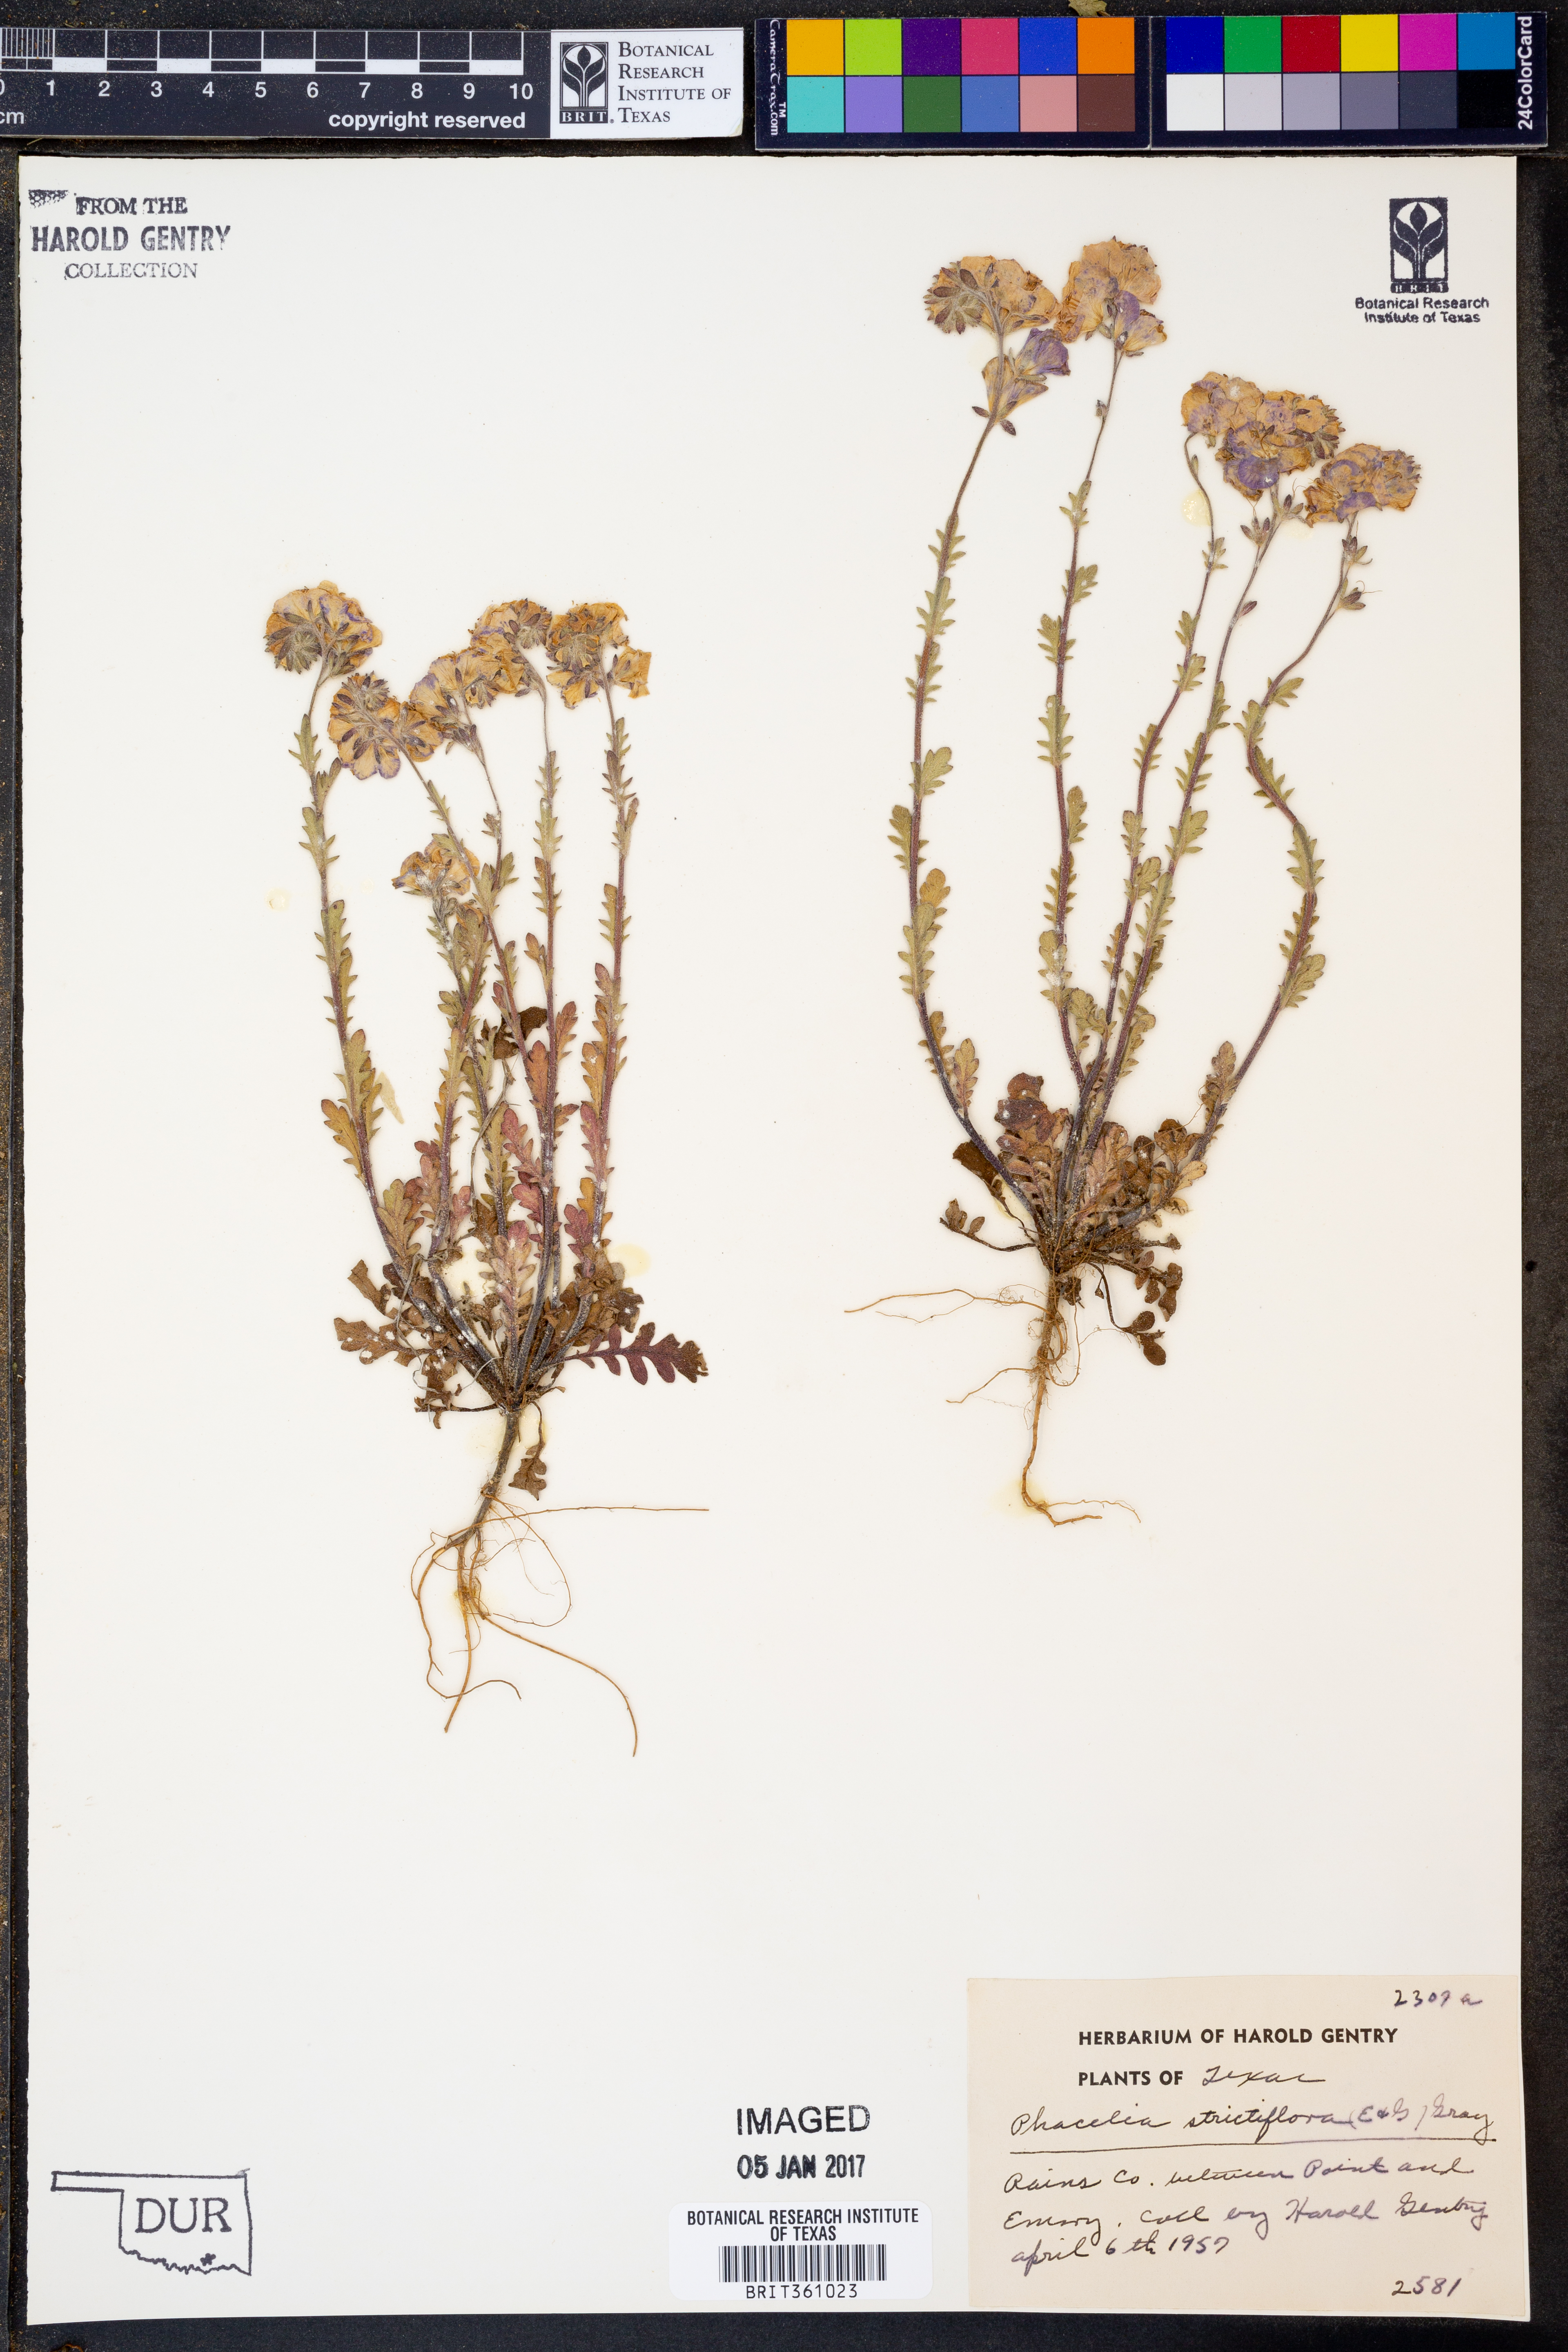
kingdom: Plantae
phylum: Tracheophyta
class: Magnoliopsida
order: Boraginales
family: Hydrophyllaceae
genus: Phacelia
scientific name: Phacelia strictiflora
